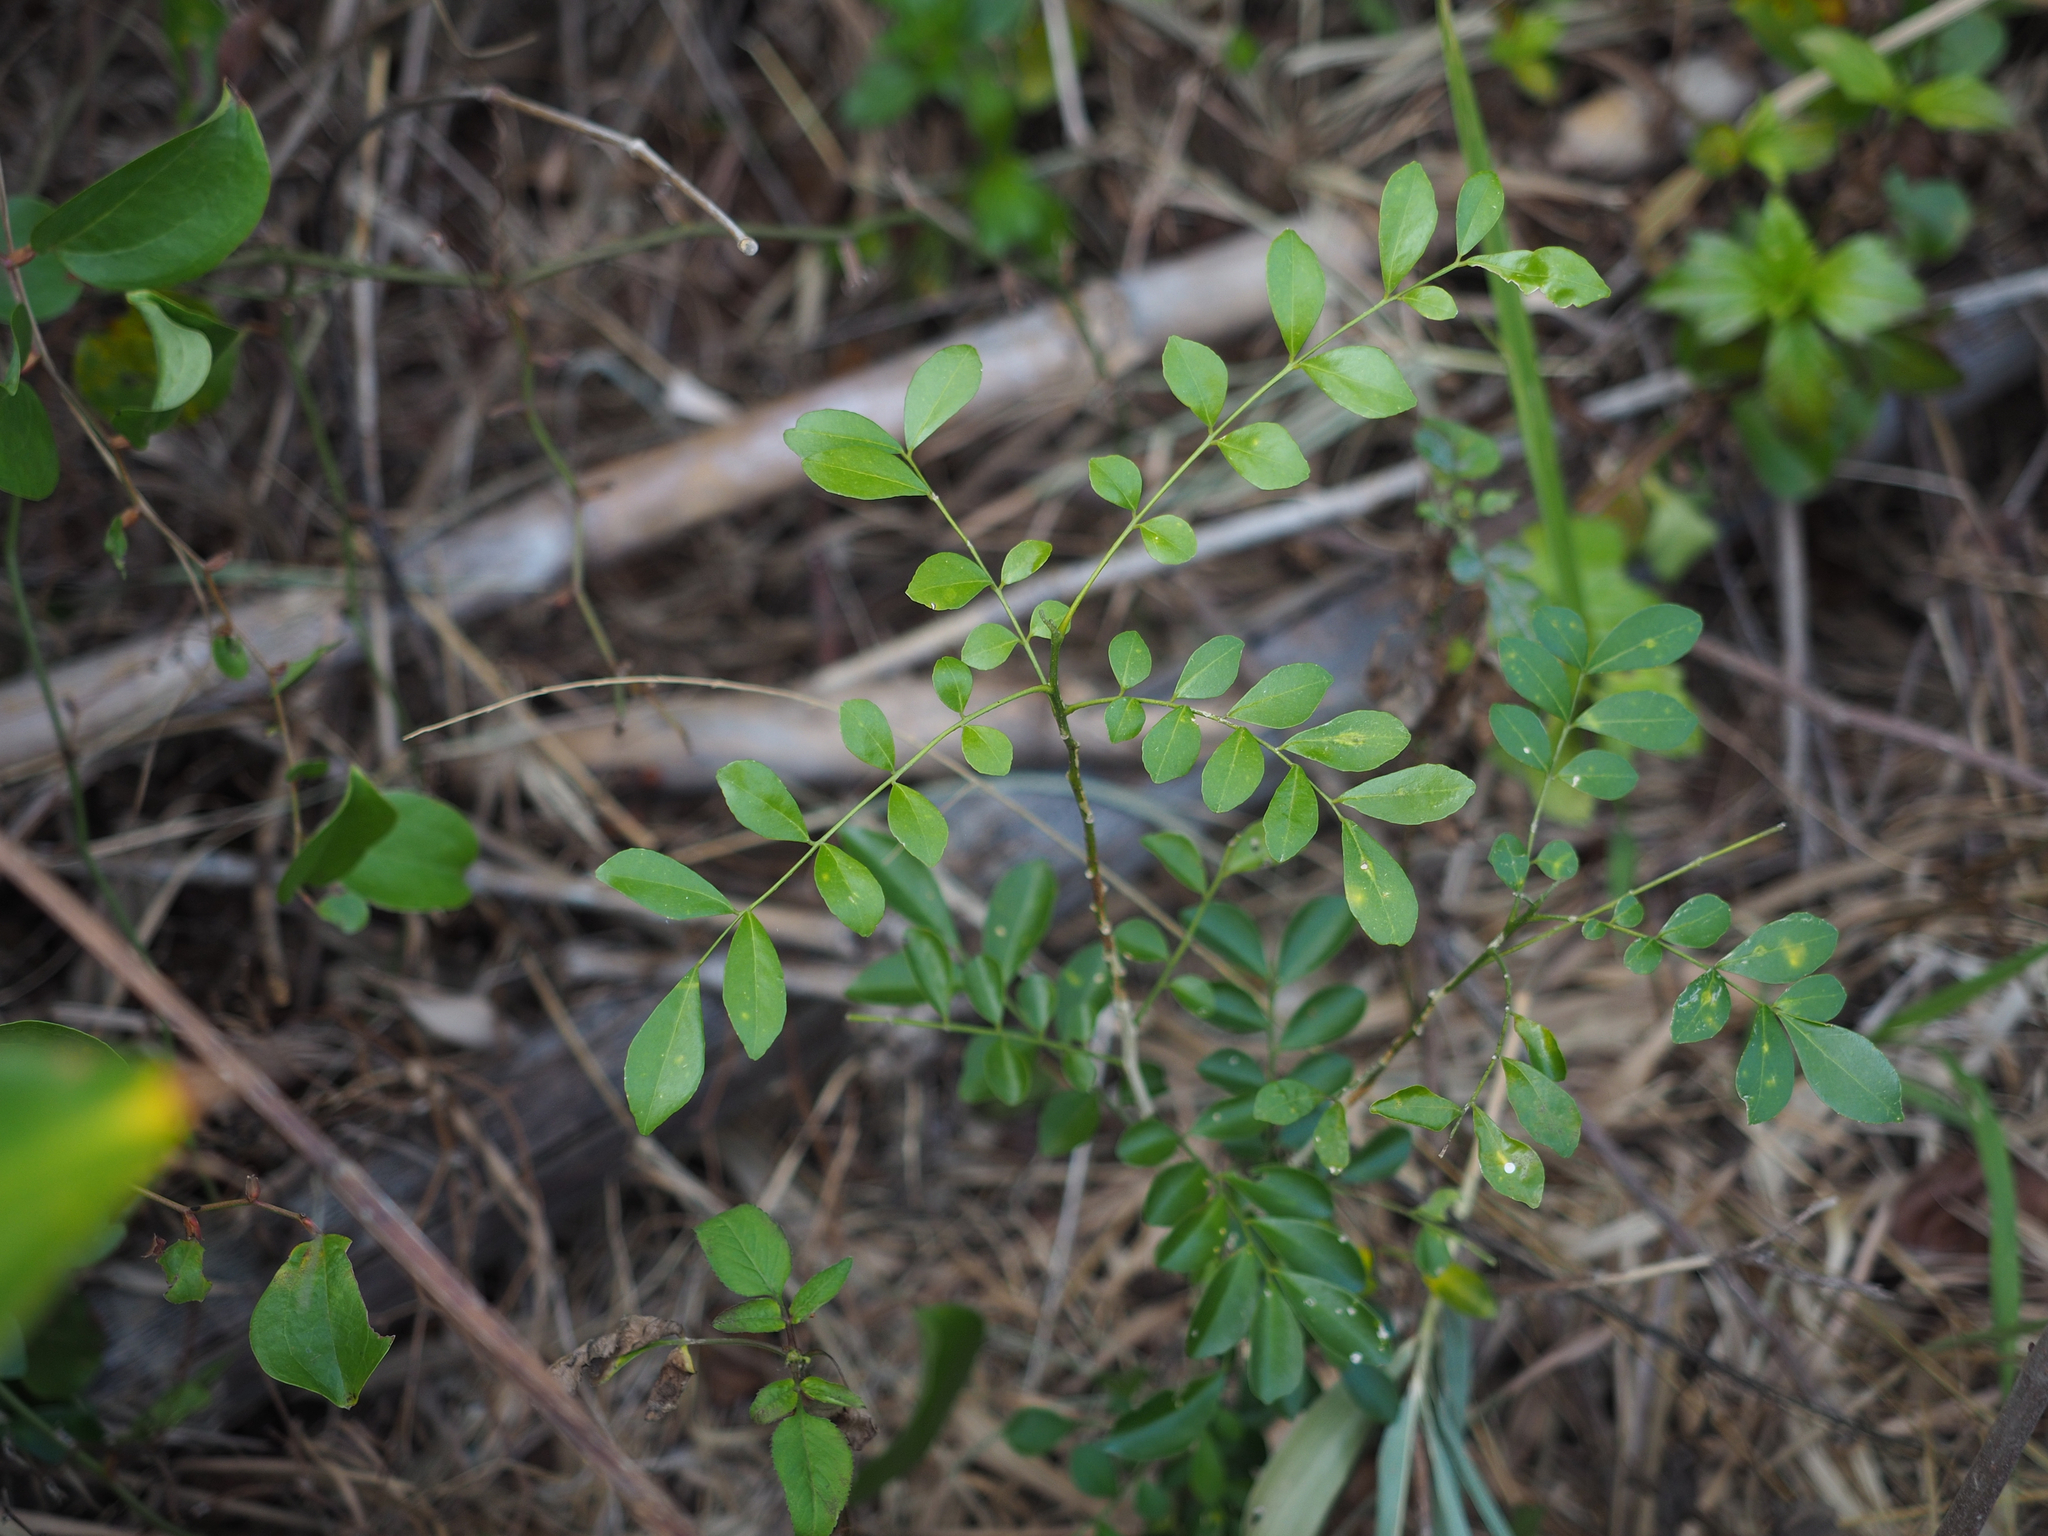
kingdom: Plantae
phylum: Tracheophyta
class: Magnoliopsida
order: Sapindales
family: Rutaceae
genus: Murraya
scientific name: Murraya paniculata
